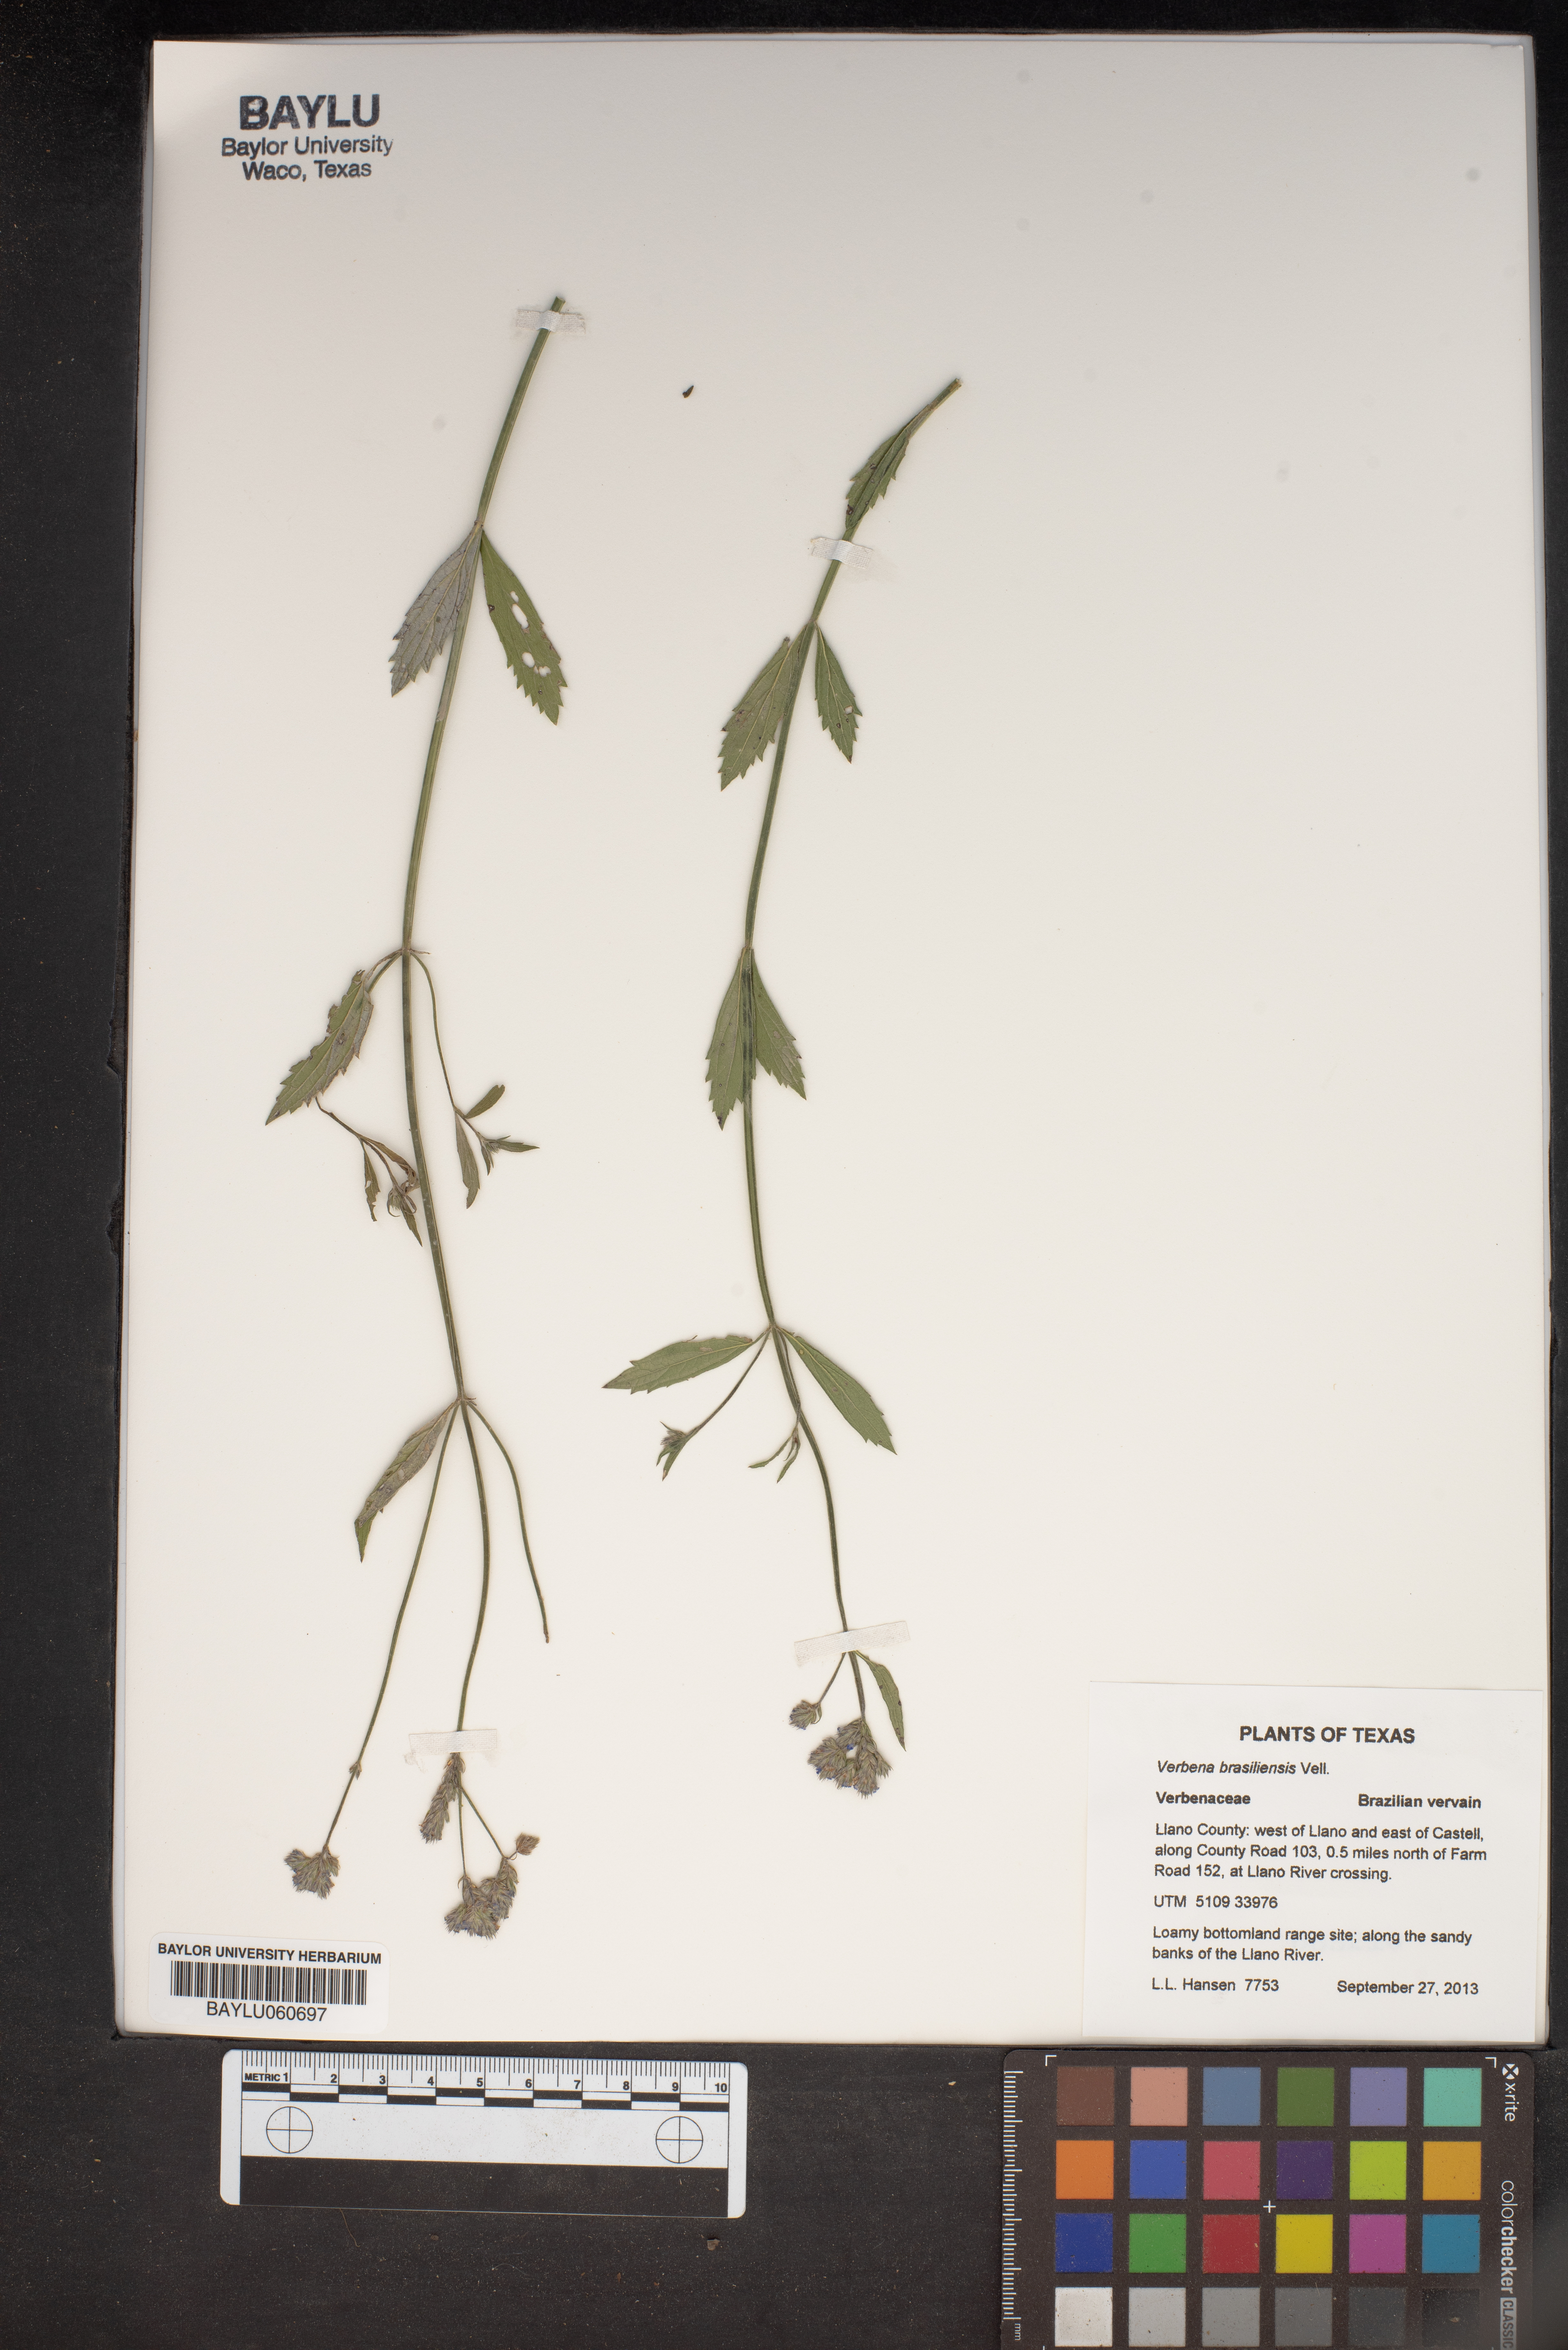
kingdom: Plantae
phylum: Tracheophyta
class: Magnoliopsida
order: Lamiales
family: Verbenaceae
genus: Verbena
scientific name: Verbena brasiliensis
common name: Brazilian vervain
